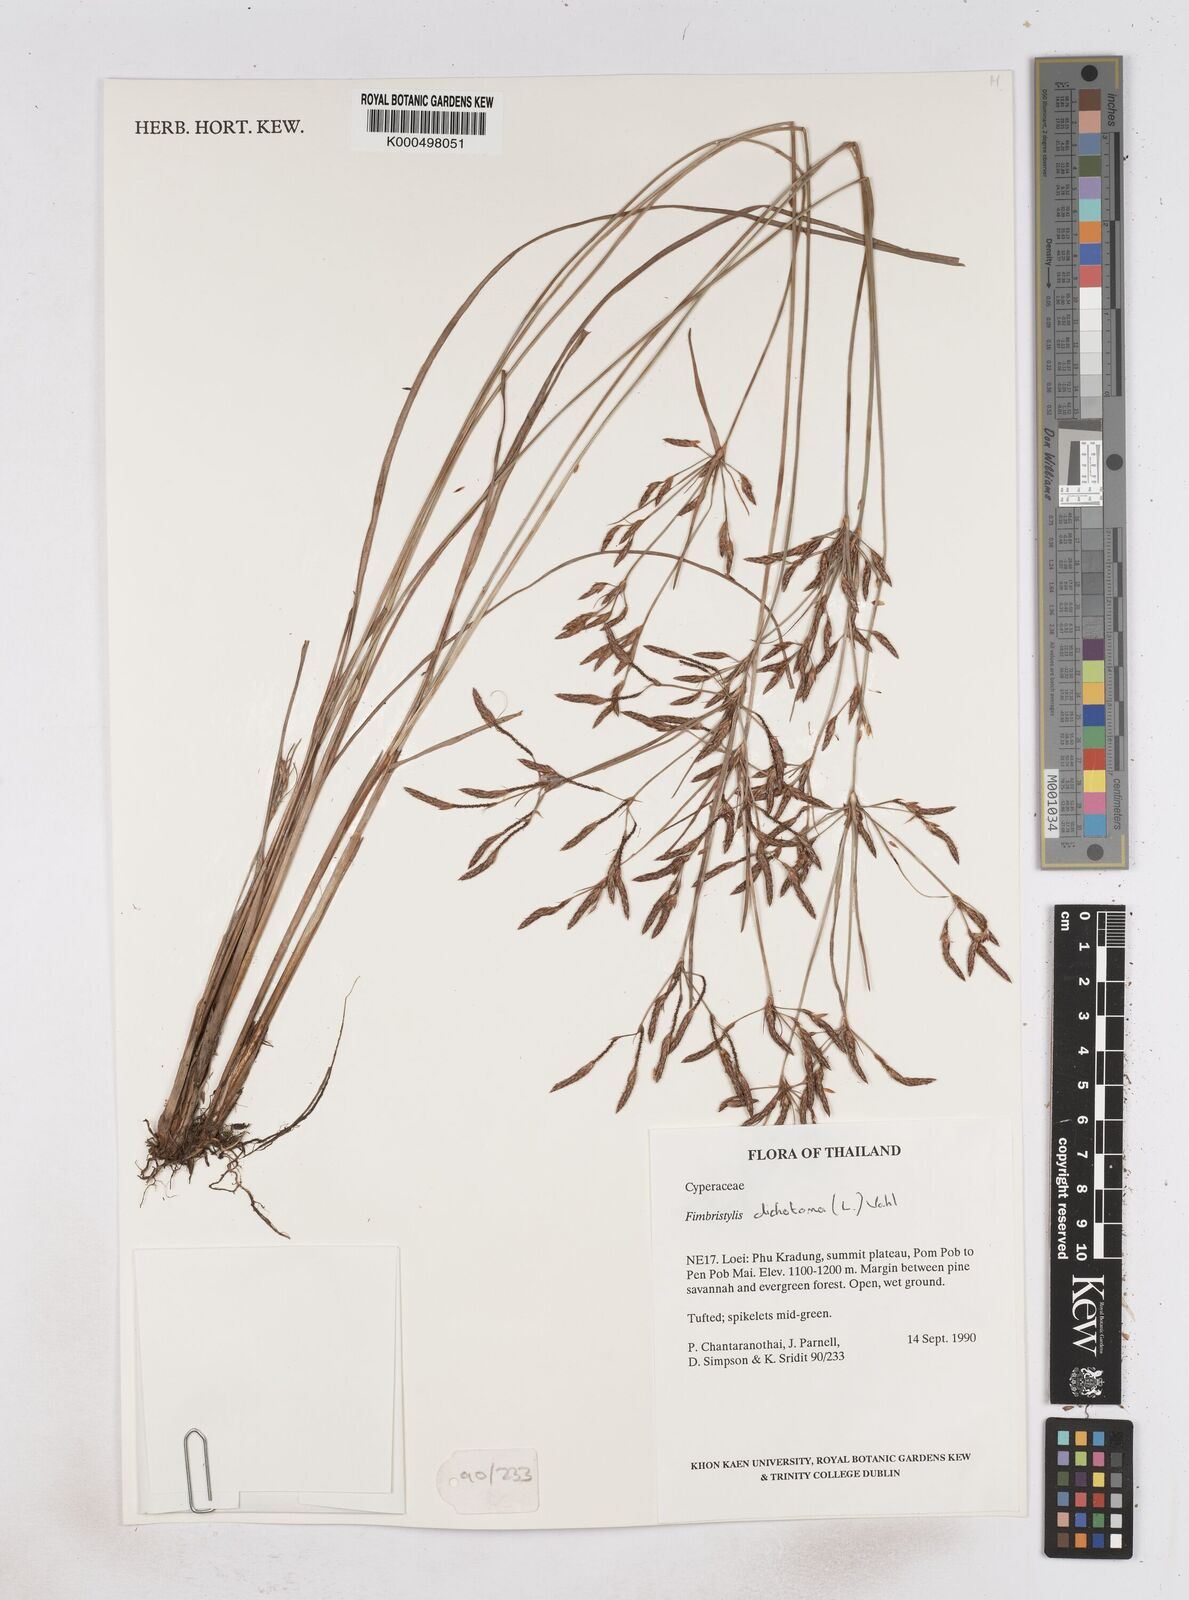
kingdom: Plantae
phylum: Tracheophyta
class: Liliopsida
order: Poales
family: Cyperaceae
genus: Fimbristylis
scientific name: Fimbristylis dichotoma
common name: Forked fimbry
